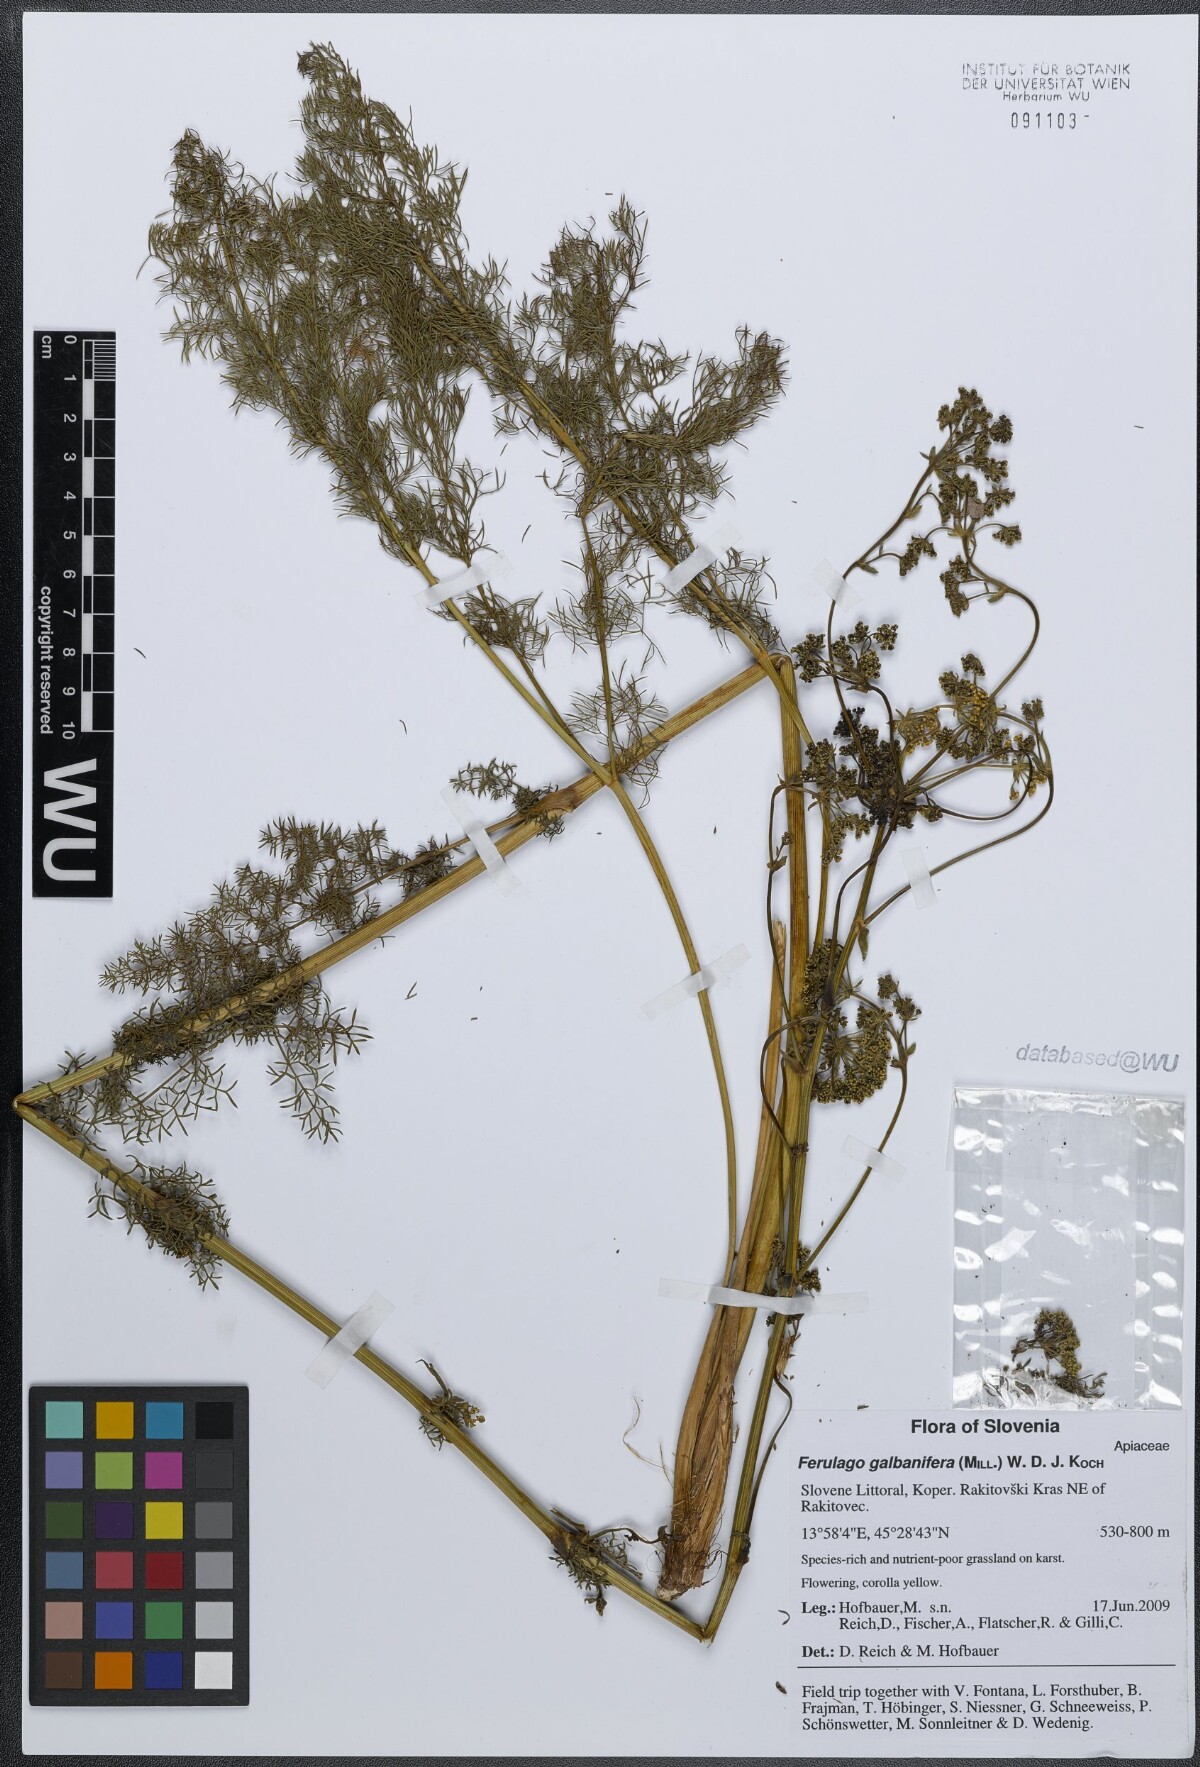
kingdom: Plantae
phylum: Tracheophyta
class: Magnoliopsida
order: Apiales
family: Apiaceae
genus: Ferulago
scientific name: Ferulago galbanifera
